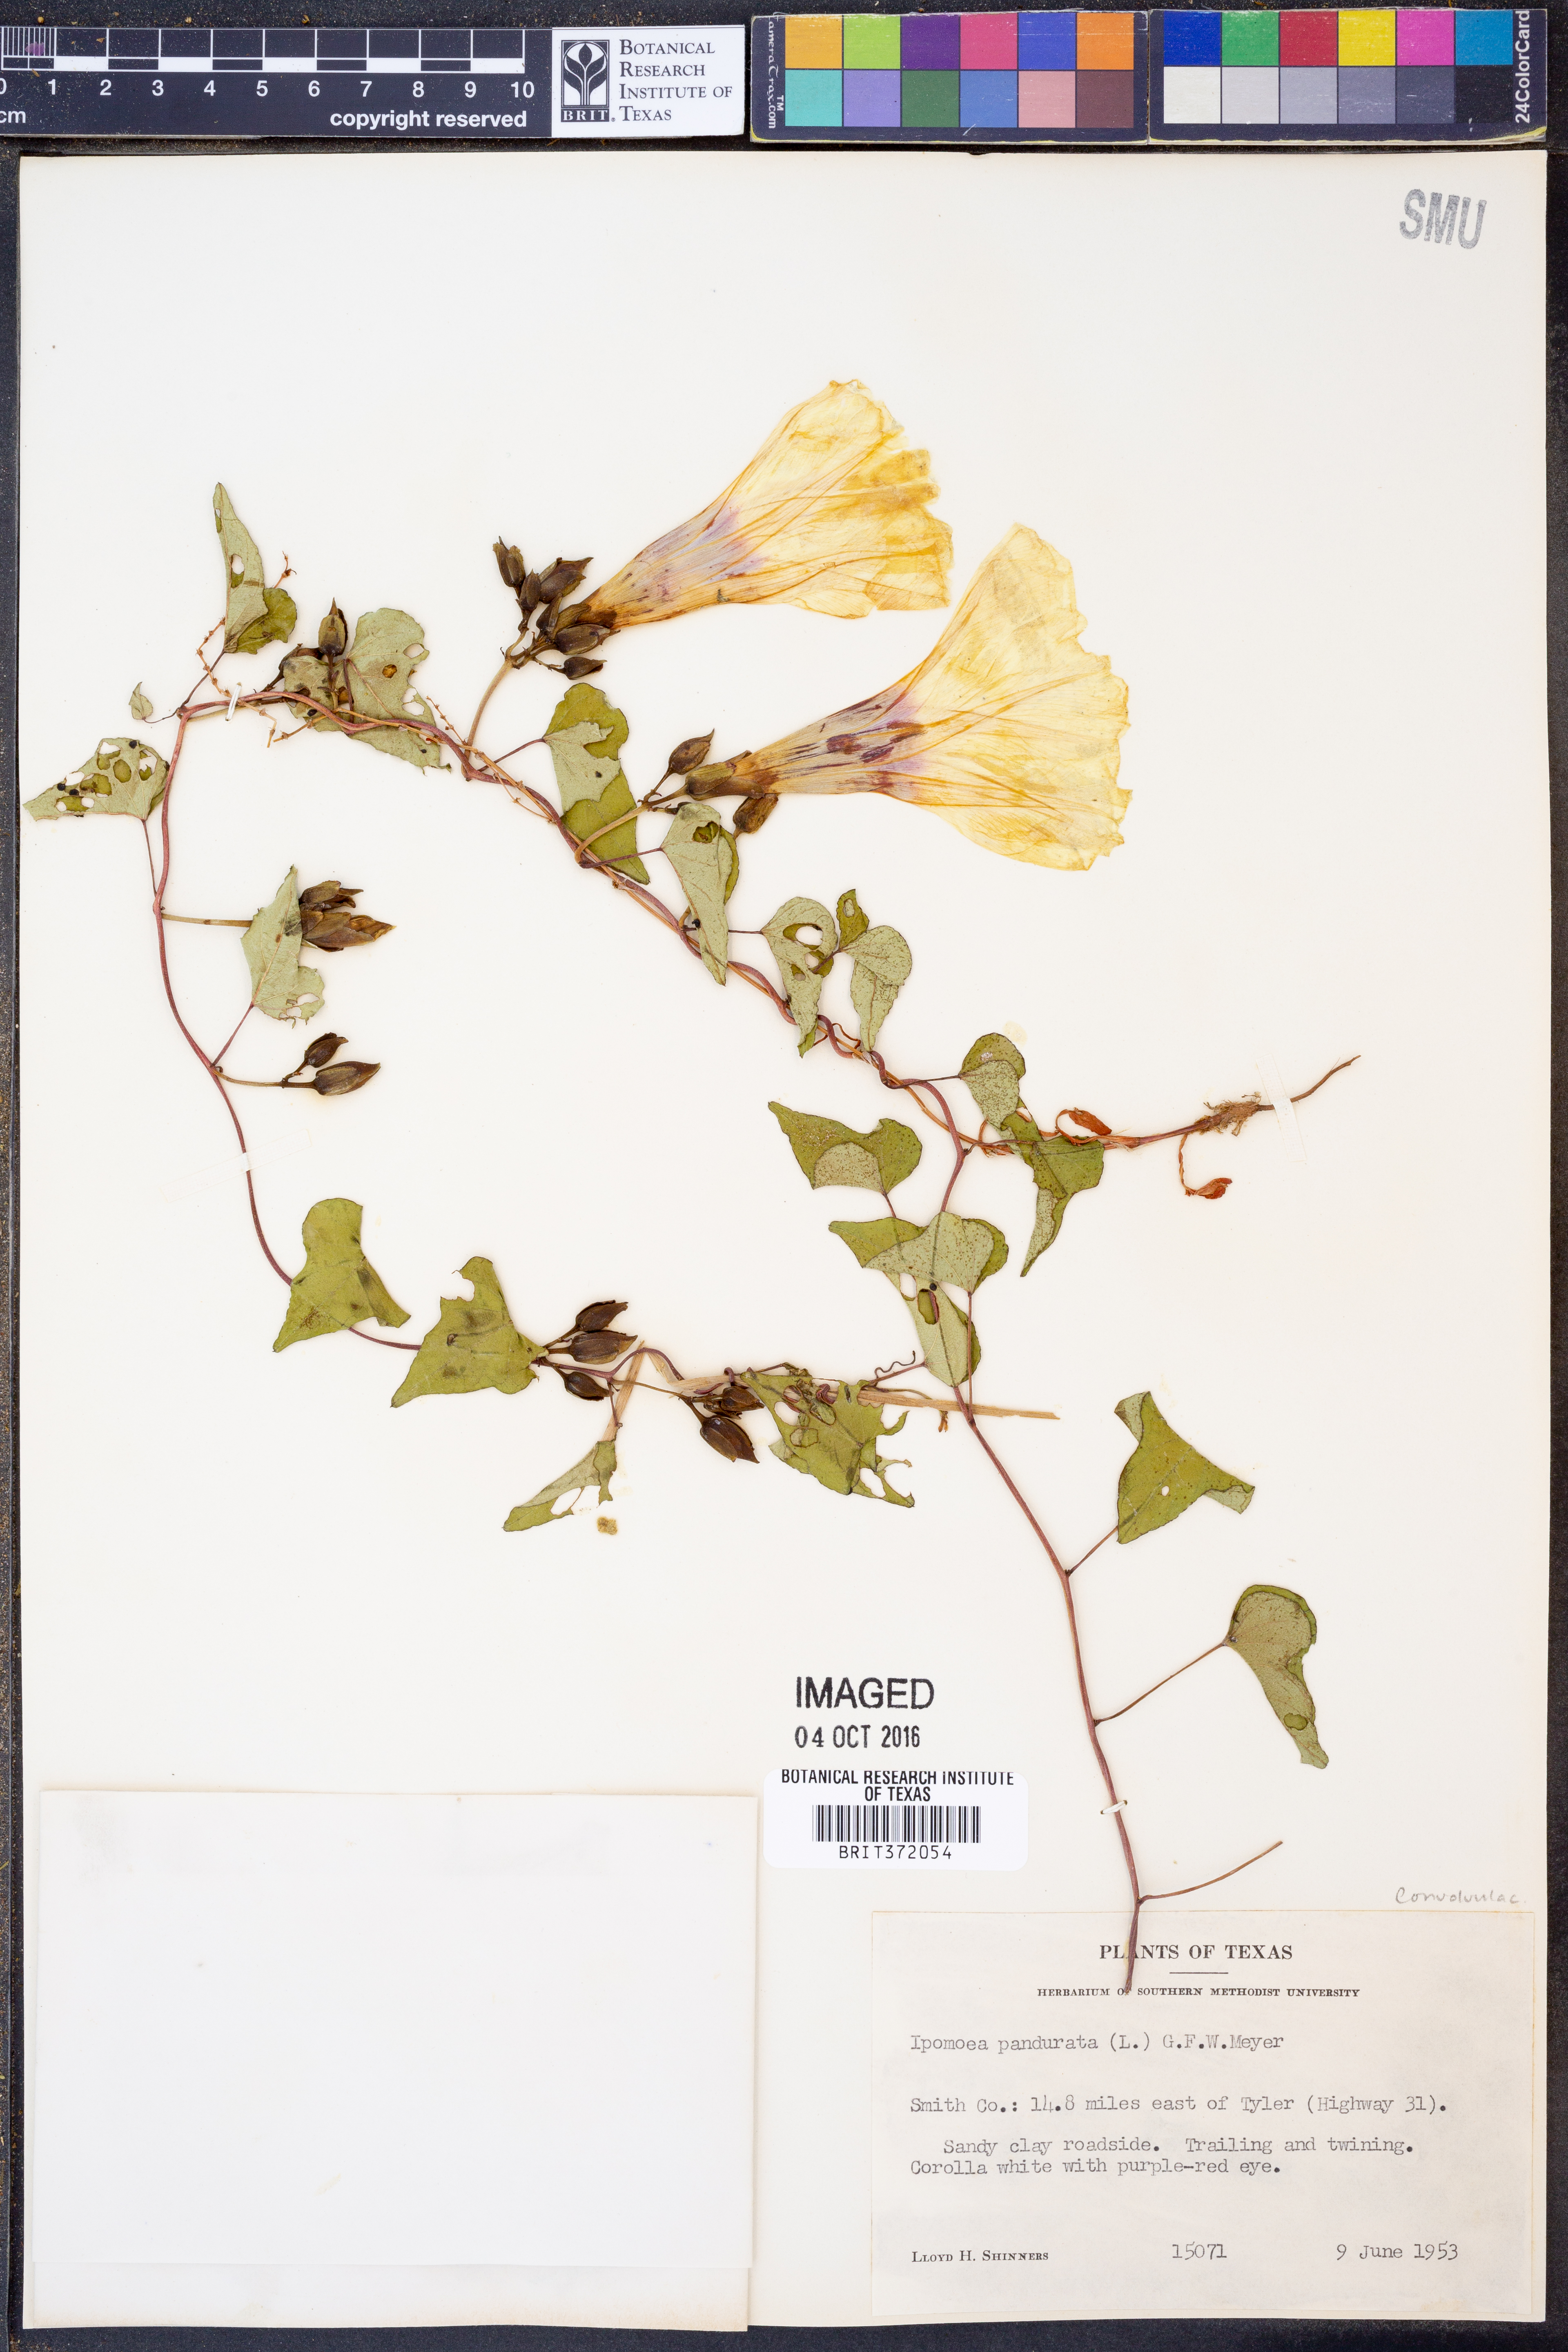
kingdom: Plantae
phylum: Tracheophyta
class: Magnoliopsida
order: Solanales
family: Convolvulaceae
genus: Ipomoea
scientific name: Ipomoea pandurata
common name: Man-of-the-earth
